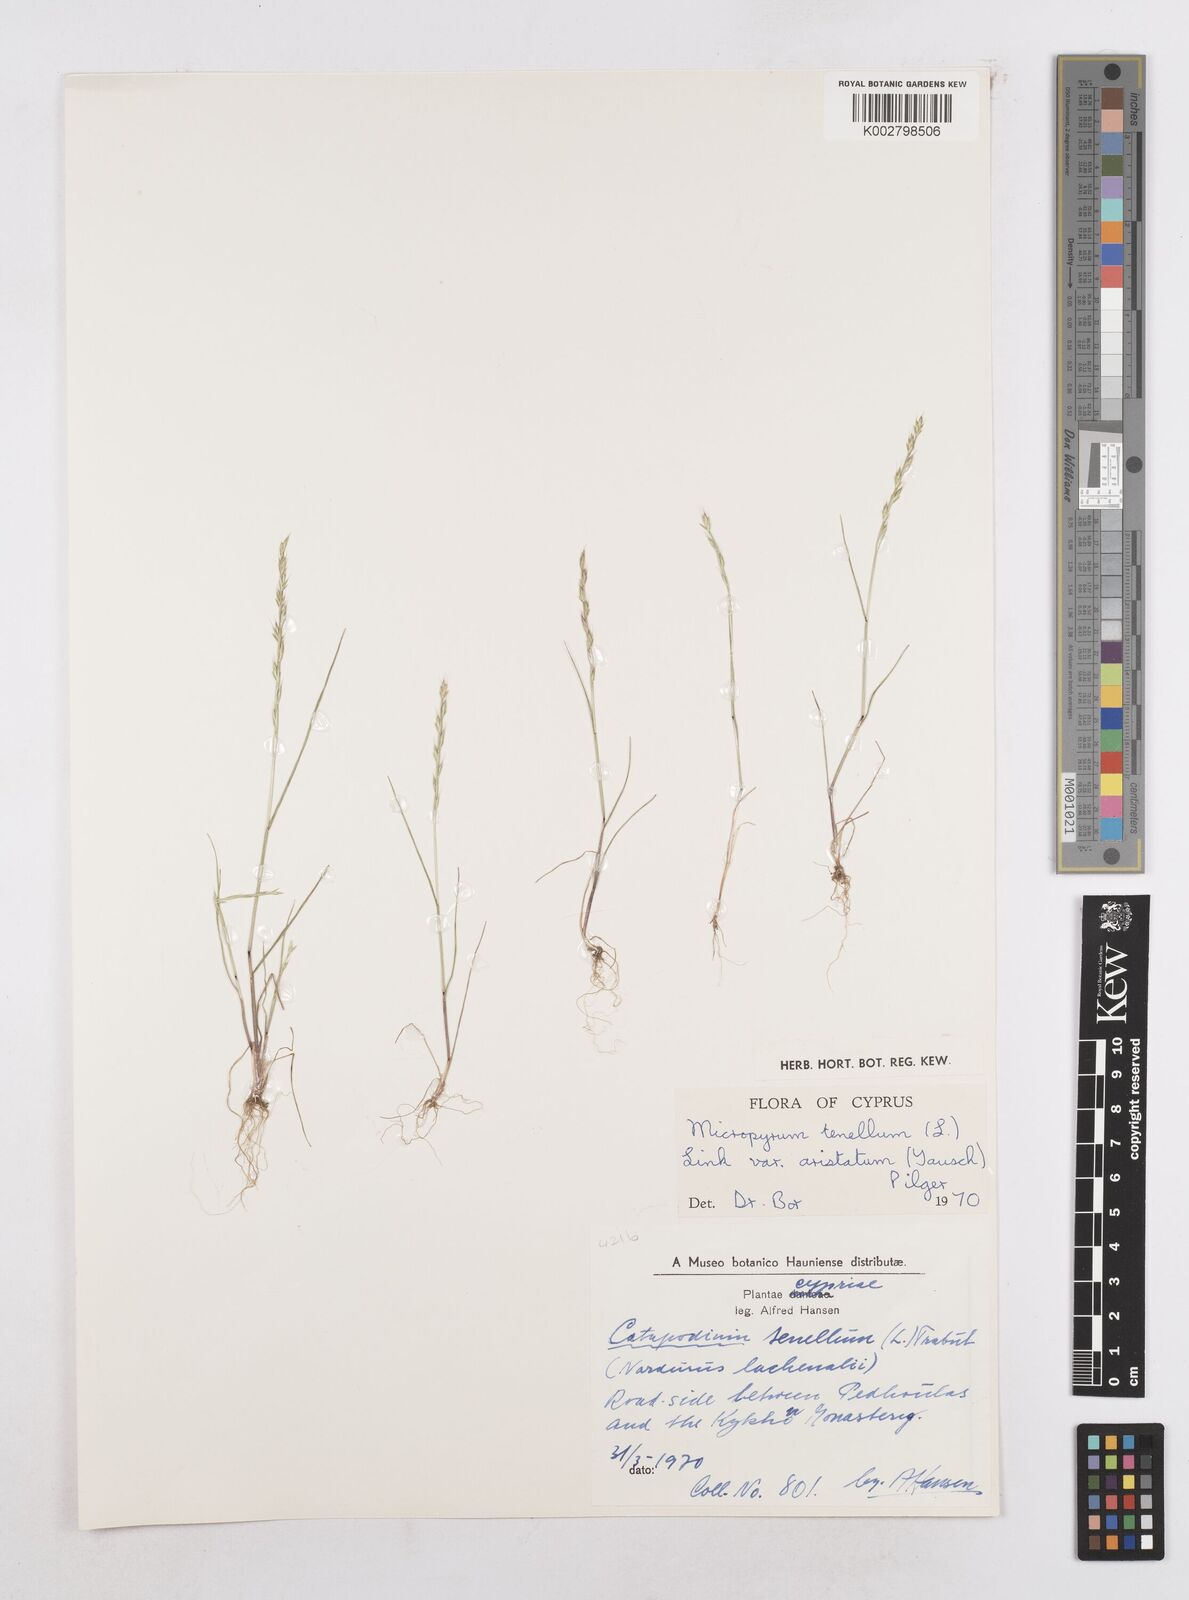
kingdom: Plantae
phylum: Tracheophyta
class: Liliopsida
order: Poales
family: Poaceae
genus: Festuca
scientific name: Festuca lachenalii
